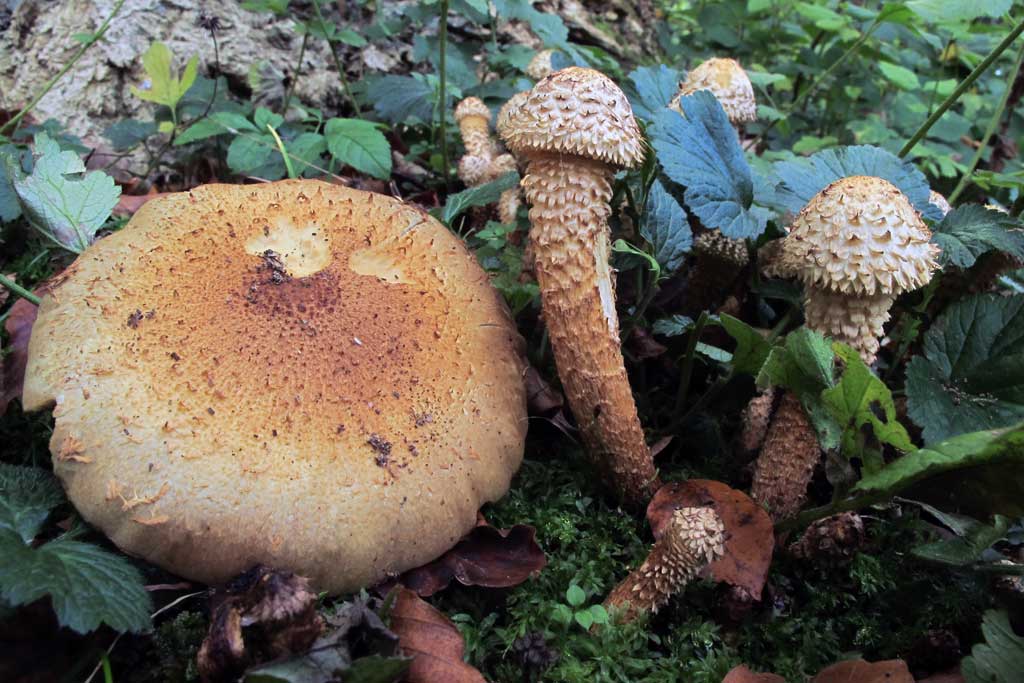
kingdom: Fungi
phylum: Basidiomycota
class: Agaricomycetes
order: Agaricales
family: Strophariaceae
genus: Pholiota
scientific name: Pholiota squarrosa
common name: krumskællet skælhat
